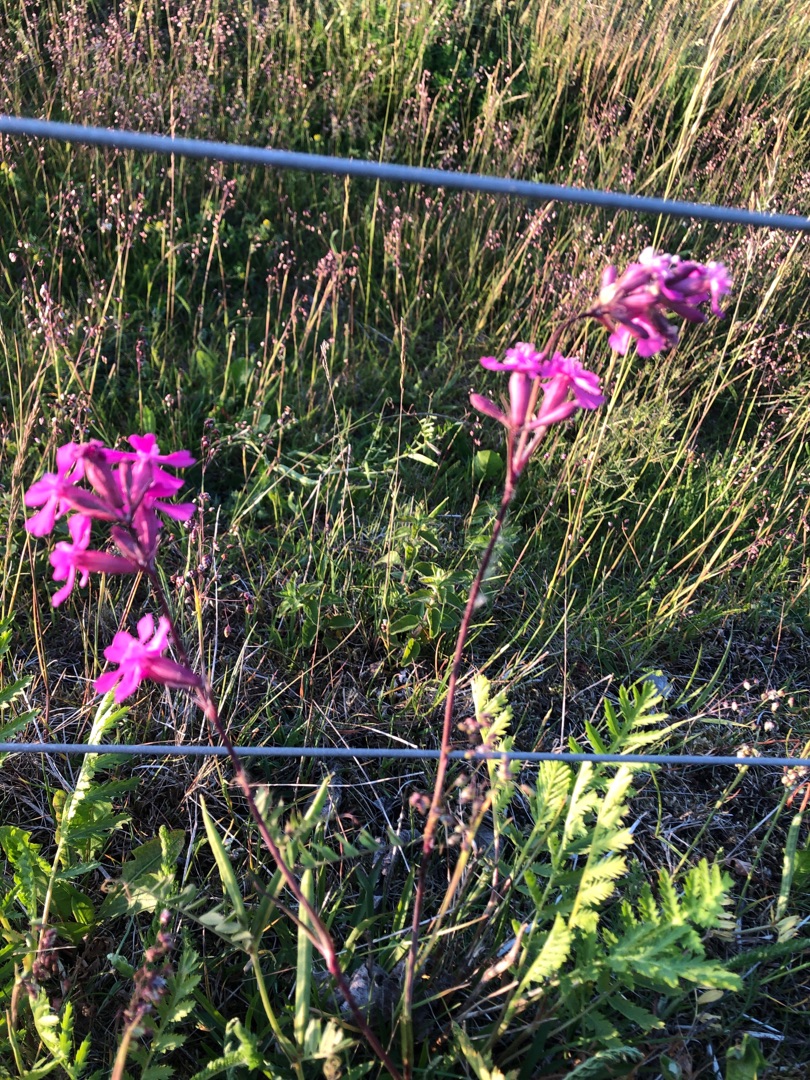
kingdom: Plantae
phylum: Tracheophyta
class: Magnoliopsida
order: Caryophyllales
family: Caryophyllaceae
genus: Viscaria
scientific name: Viscaria vulgaris
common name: Tjærenellike
